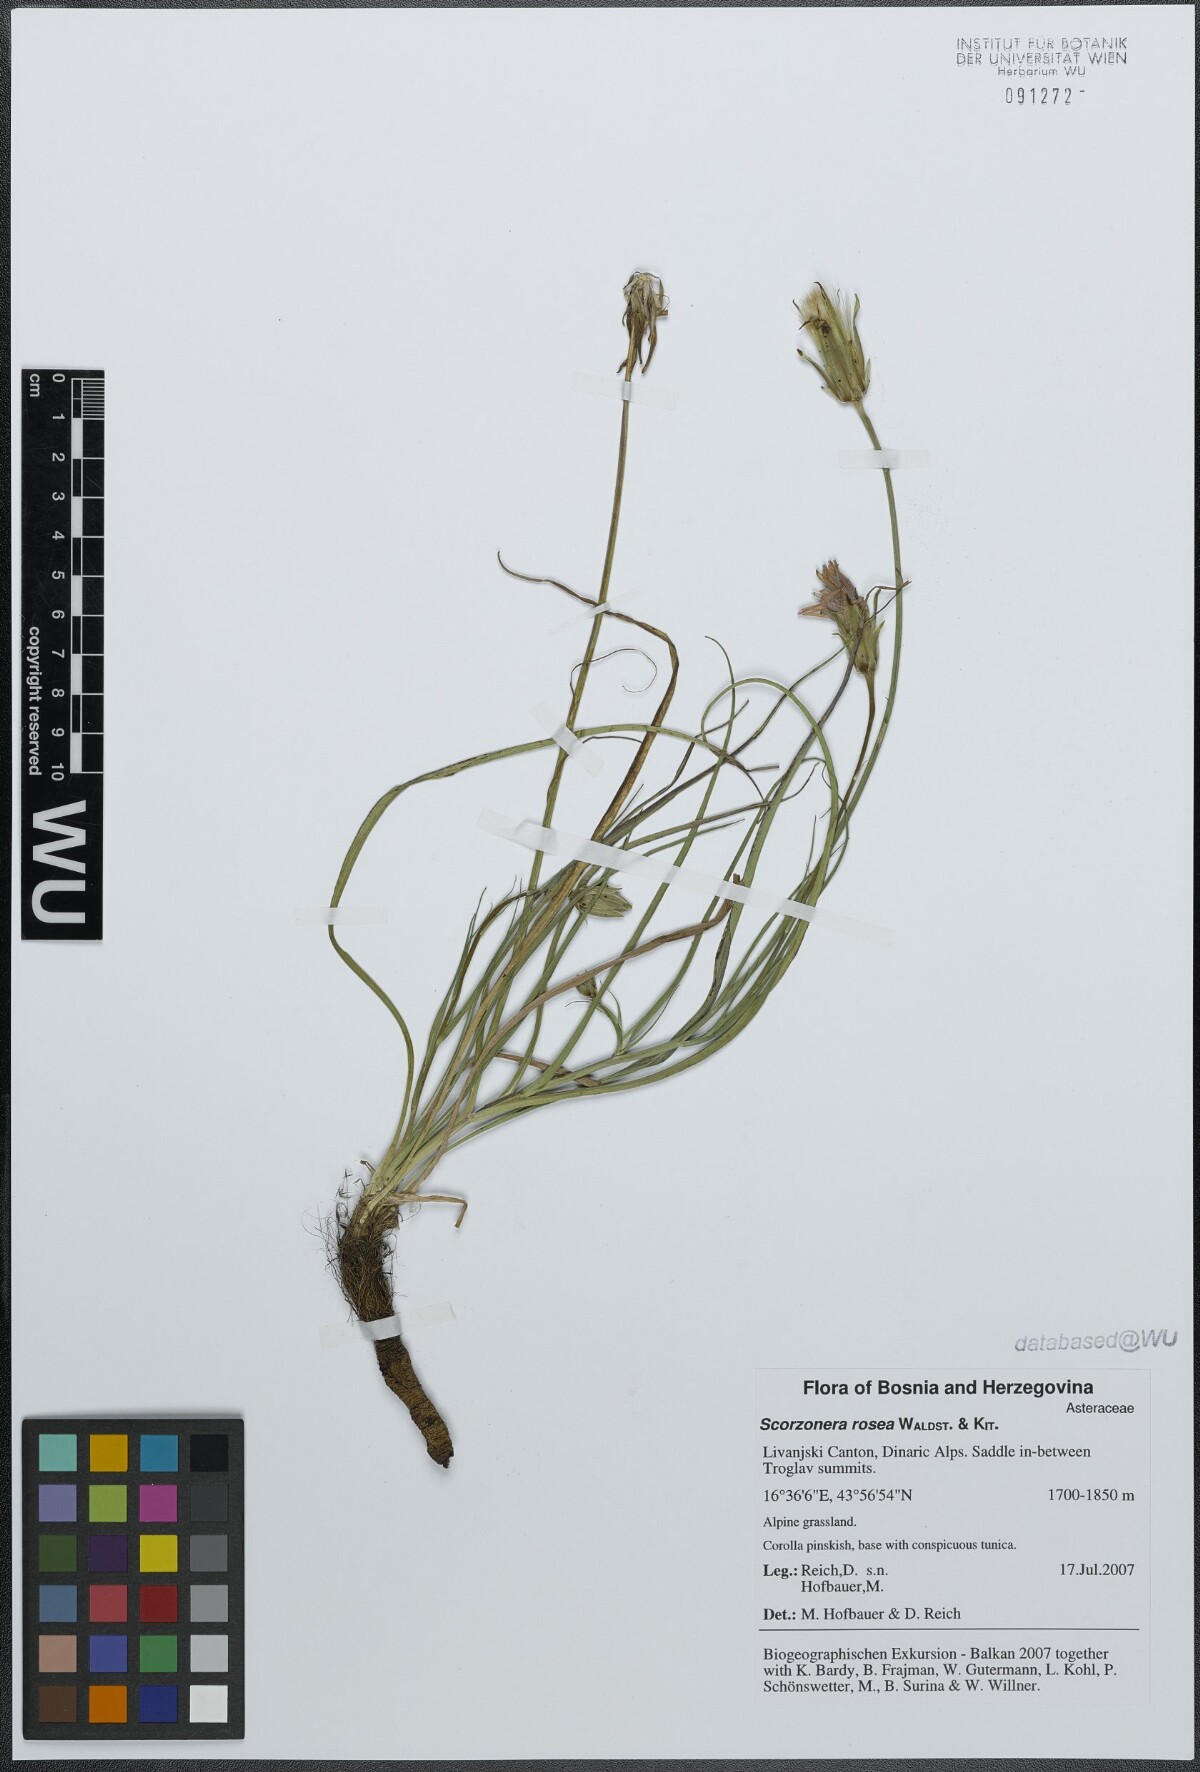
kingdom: Plantae
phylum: Tracheophyta
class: Magnoliopsida
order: Asterales
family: Asteraceae
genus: Scorzonera
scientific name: Scorzonera rosea
